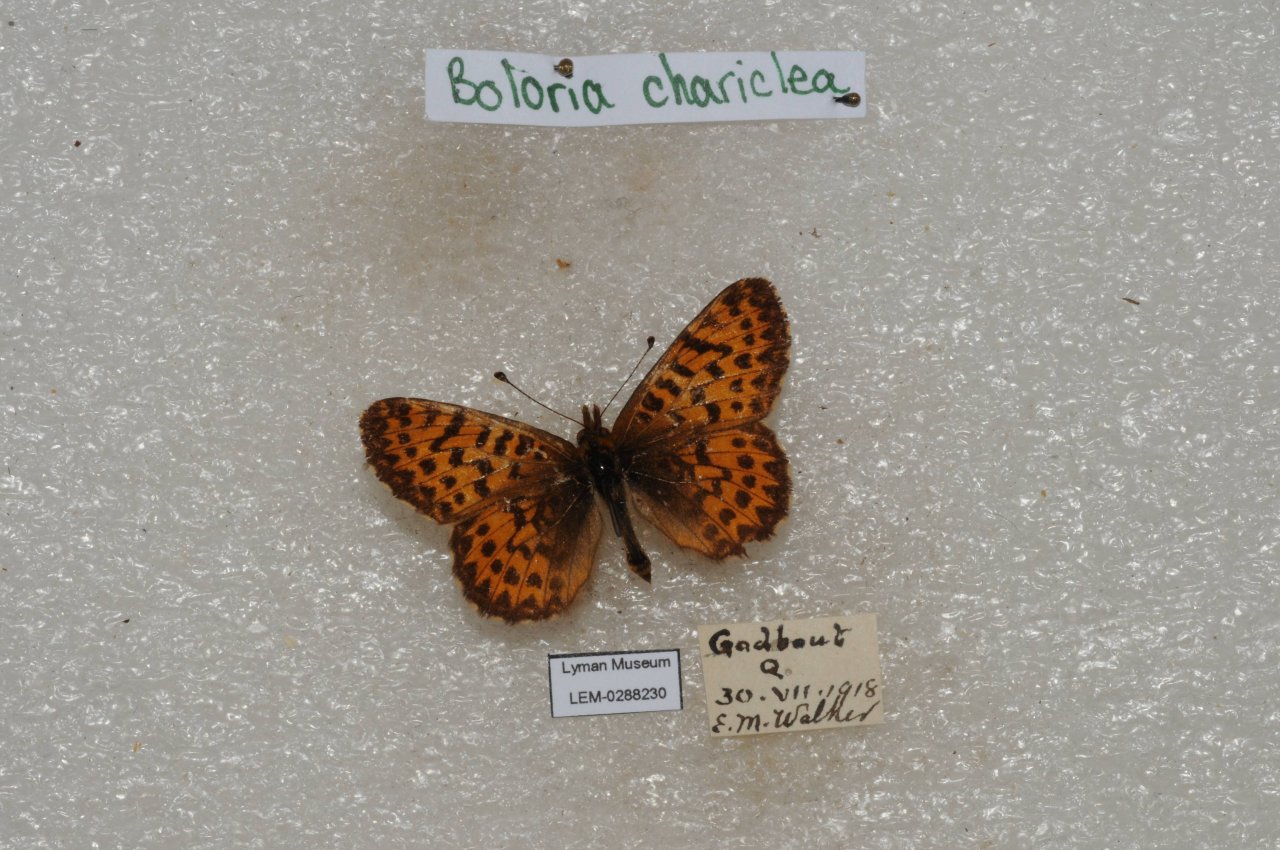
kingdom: Animalia
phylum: Arthropoda
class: Insecta
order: Lepidoptera
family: Nymphalidae
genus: Boloria
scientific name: Boloria chariclea
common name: Arctic Fritillary
